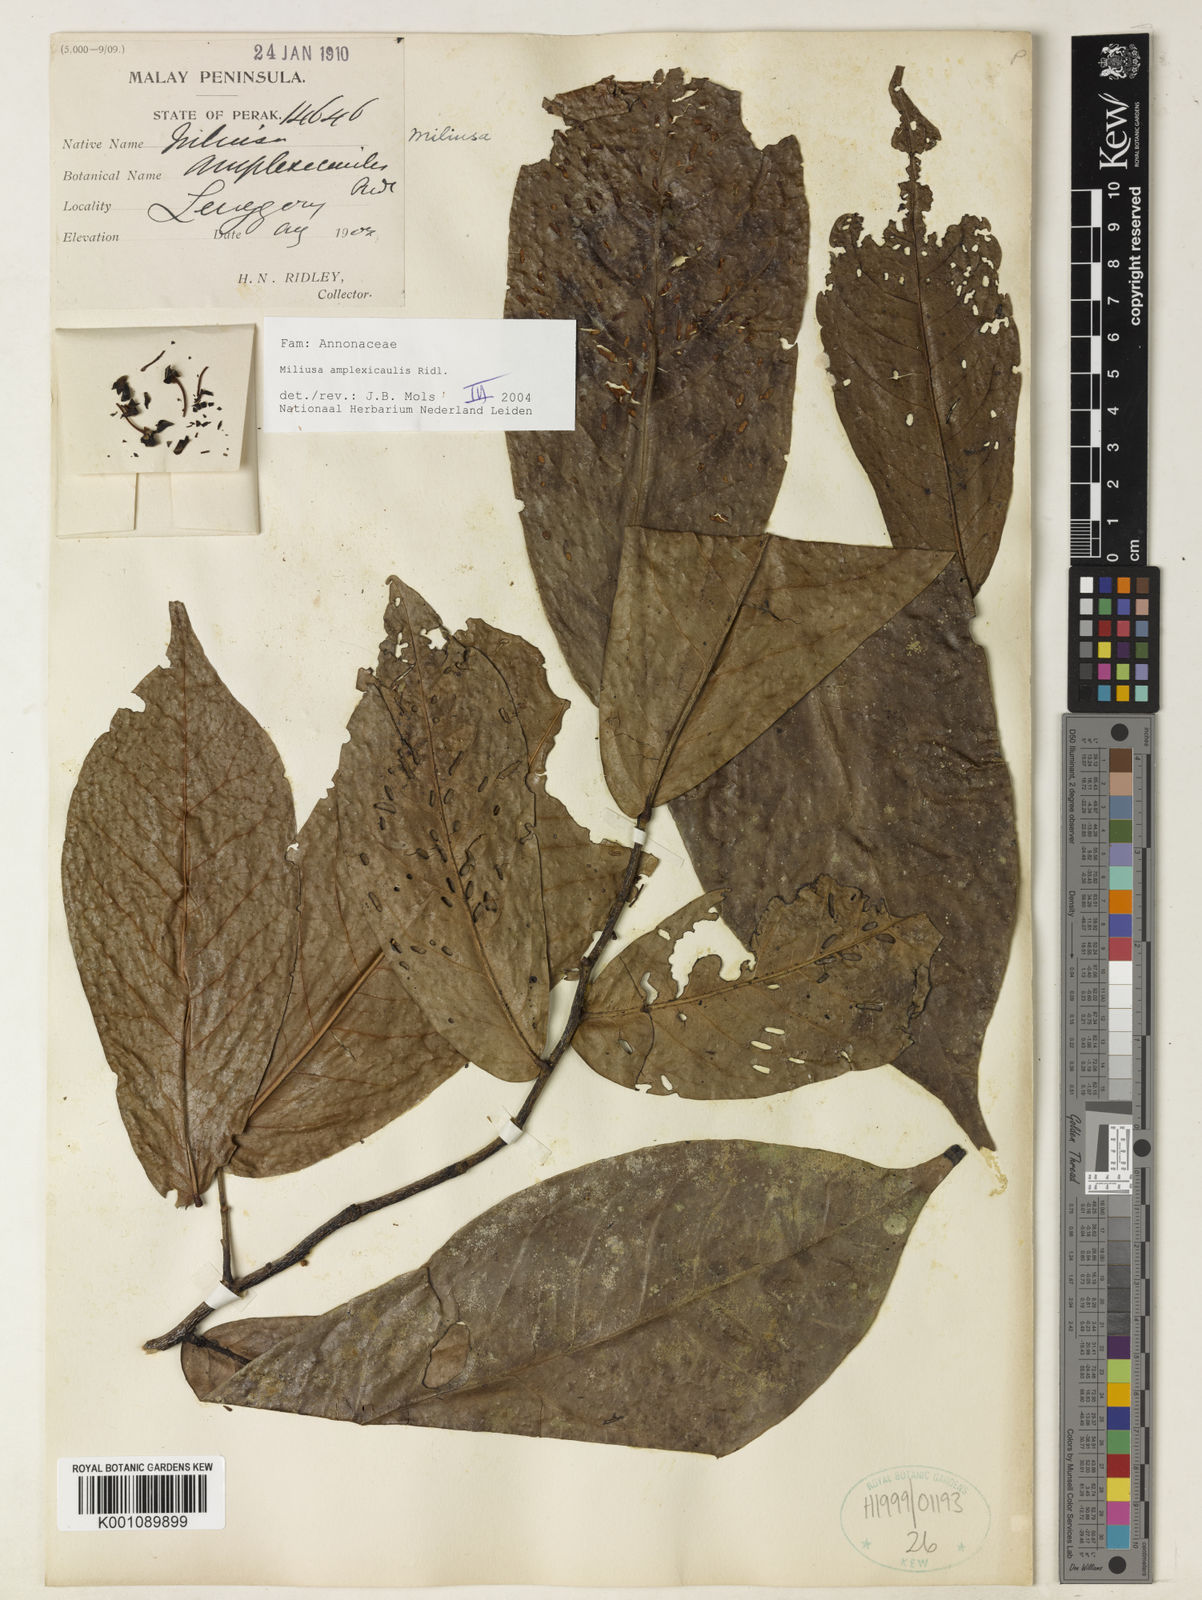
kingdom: Plantae
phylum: Tracheophyta
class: Magnoliopsida
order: Magnoliales
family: Annonaceae
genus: Miliusa
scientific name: Miliusa amplexicaulis
